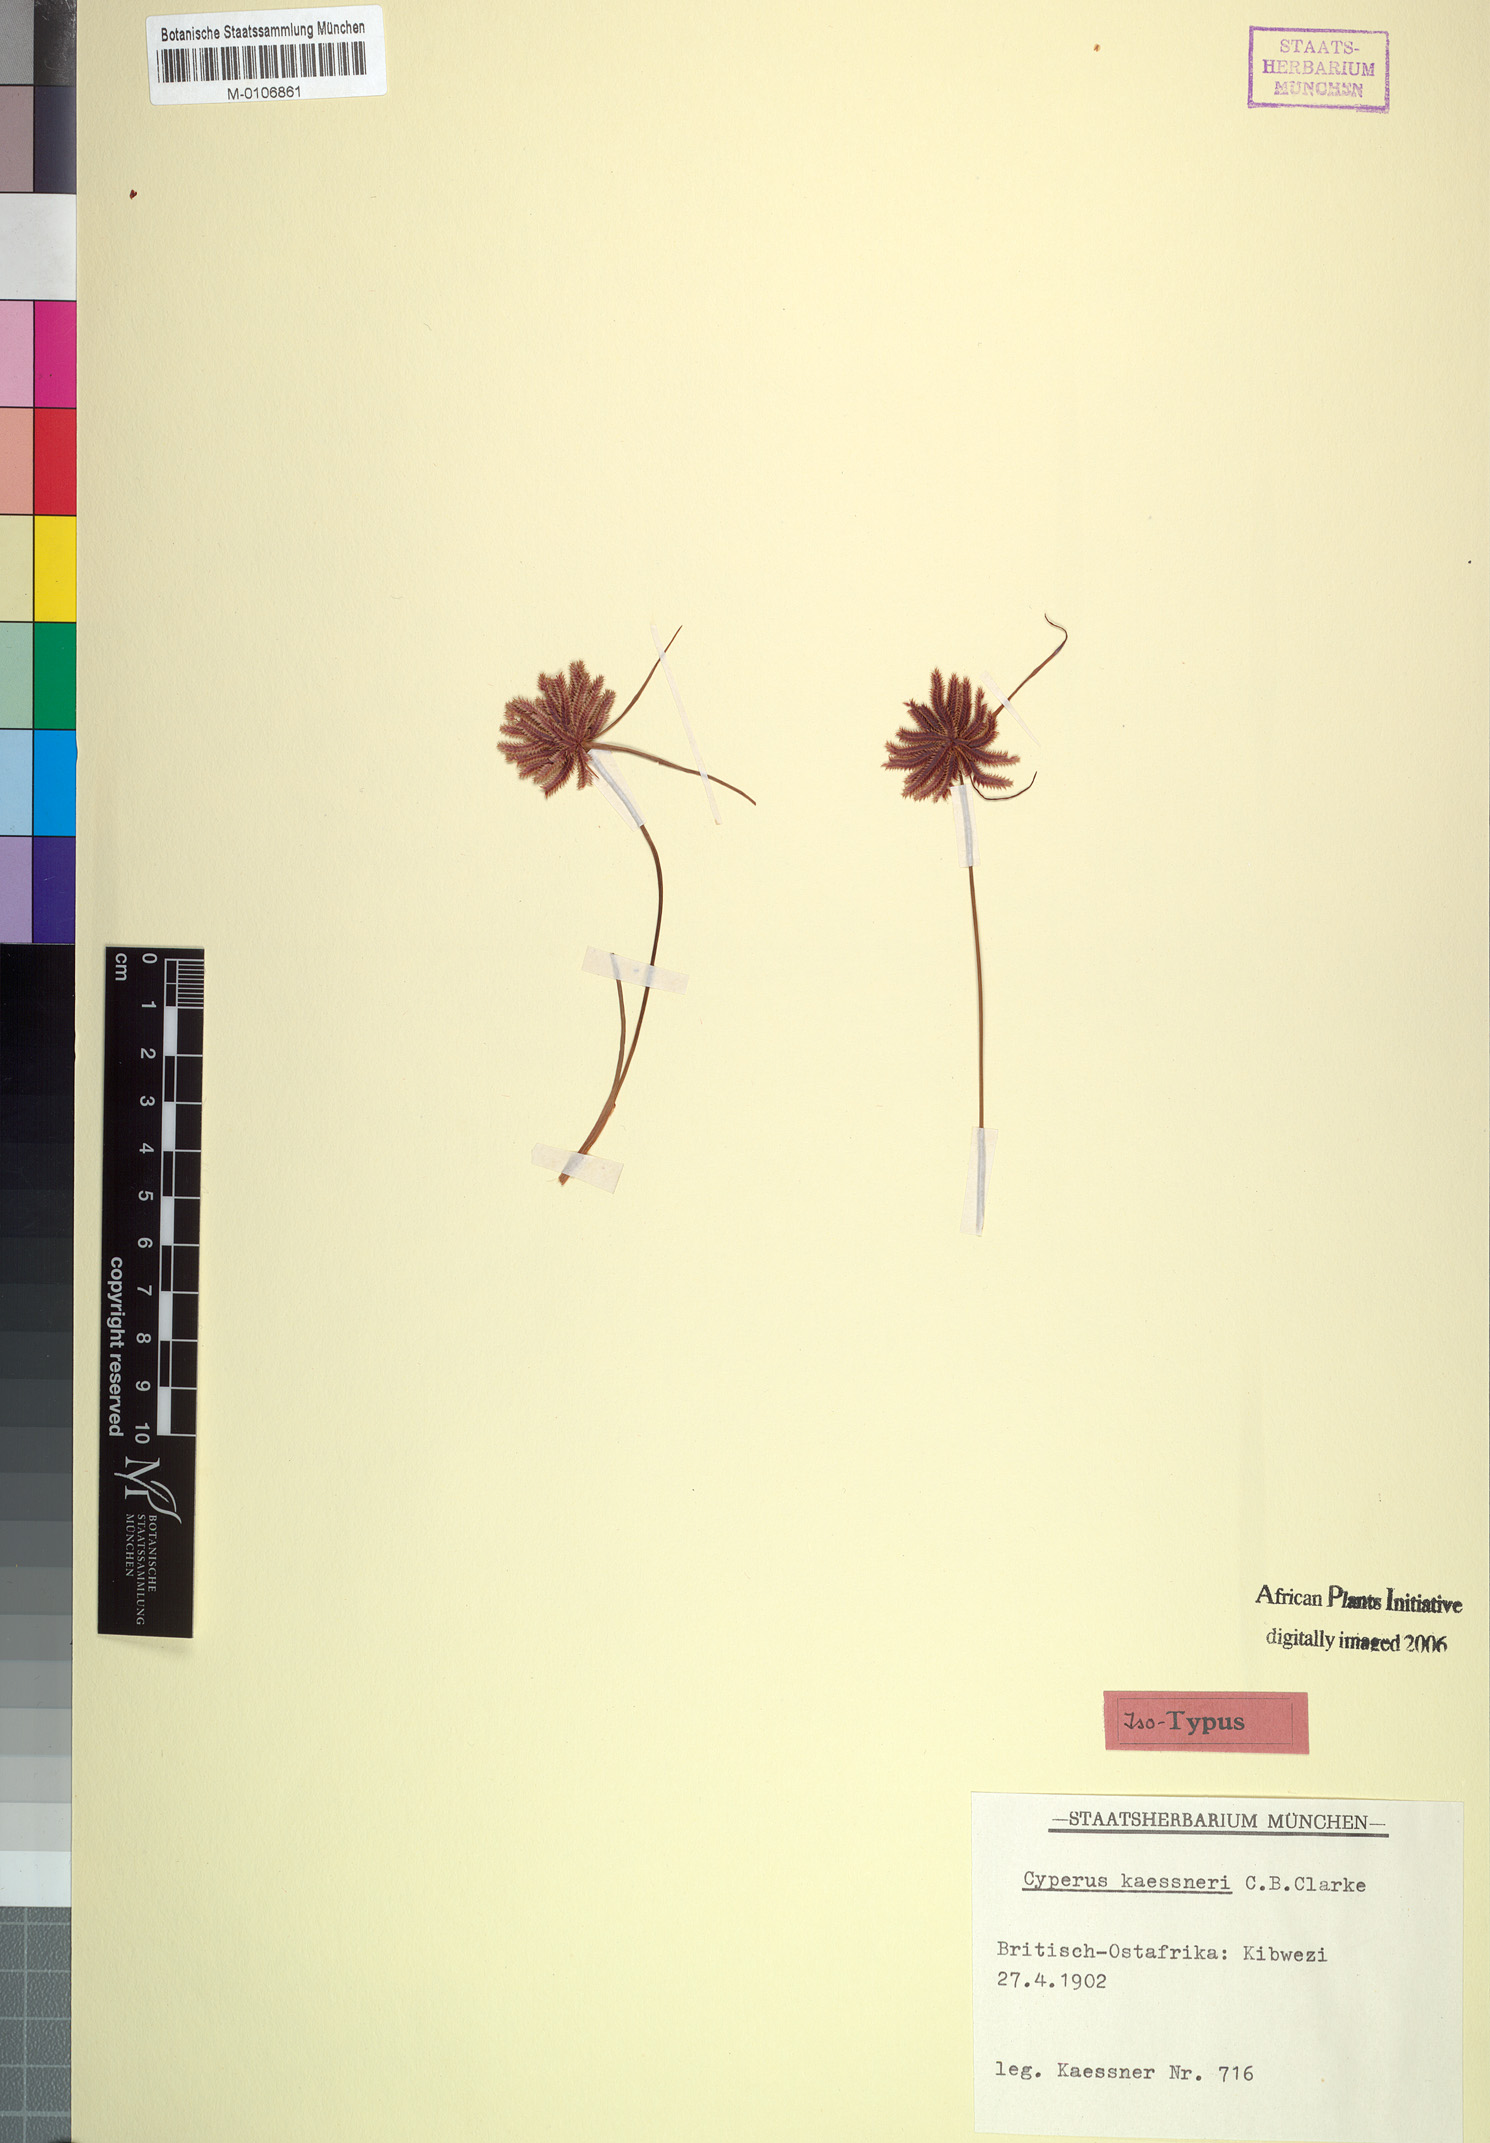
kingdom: Plantae
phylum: Tracheophyta
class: Liliopsida
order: Poales
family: Cyperaceae
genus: Cyperus
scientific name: Cyperus kaessneri
